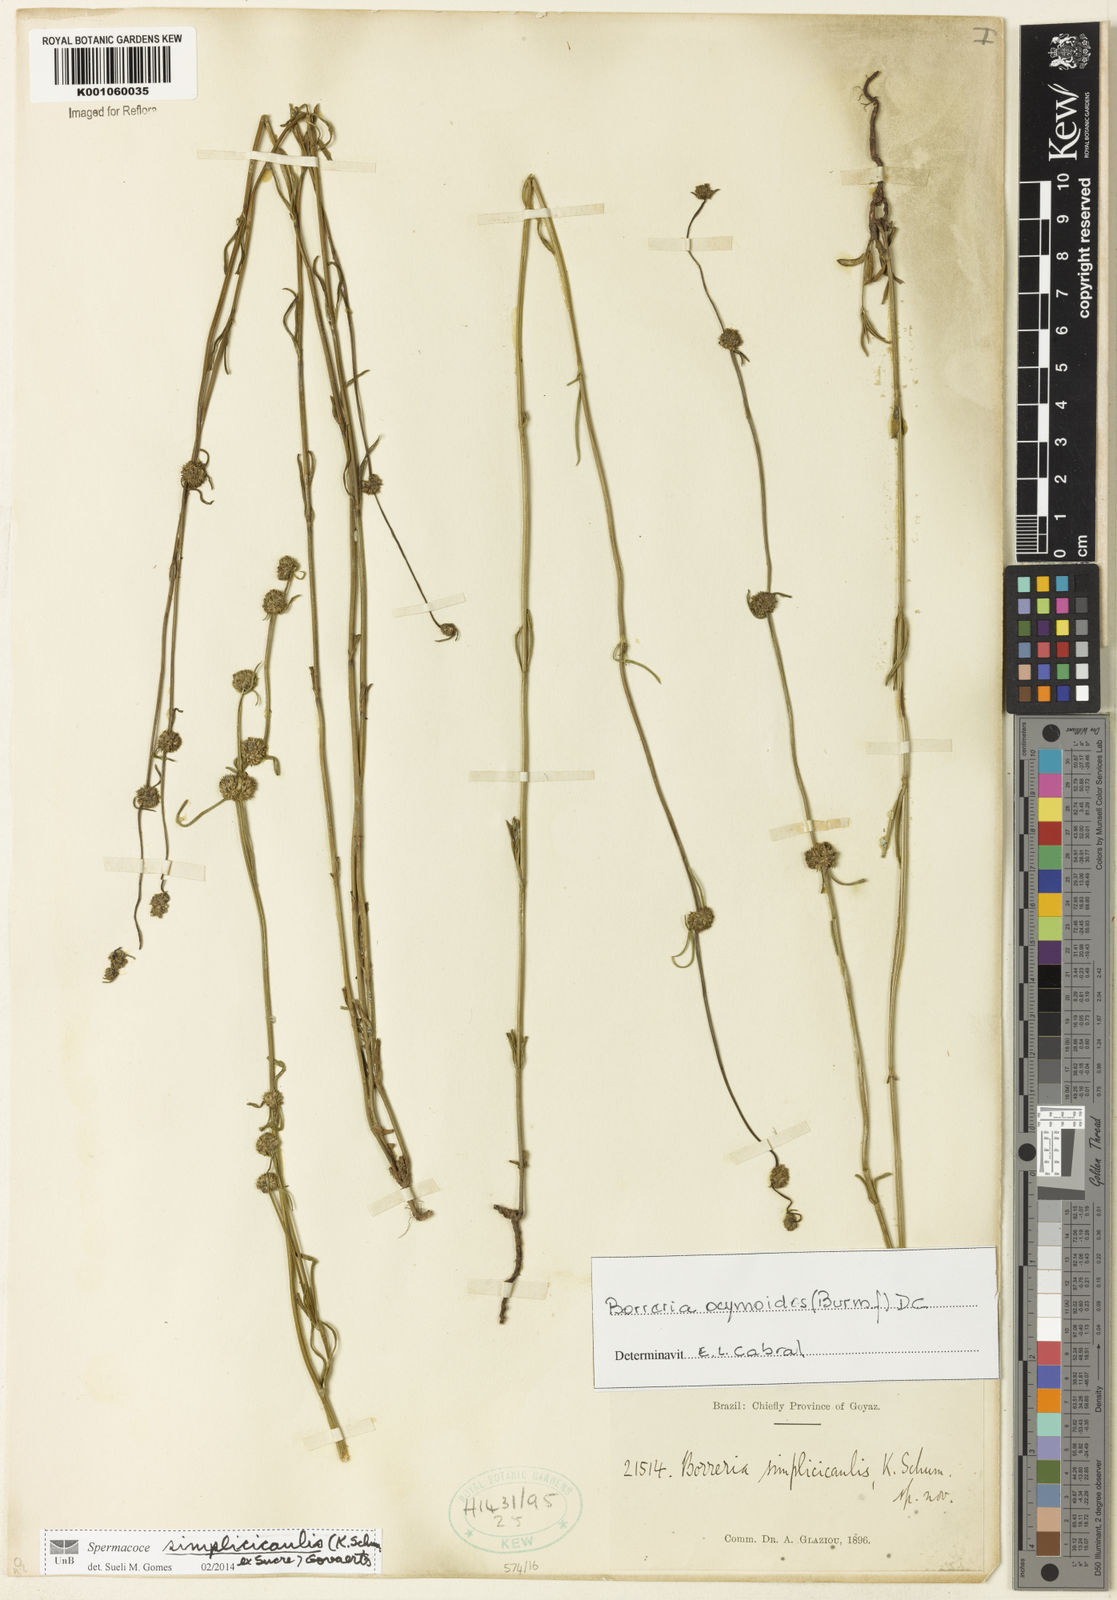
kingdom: Plantae
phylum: Tracheophyta
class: Magnoliopsida
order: Gentianales
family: Rubiaceae
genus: Spermacoce
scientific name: Spermacoce simplicicaulis
